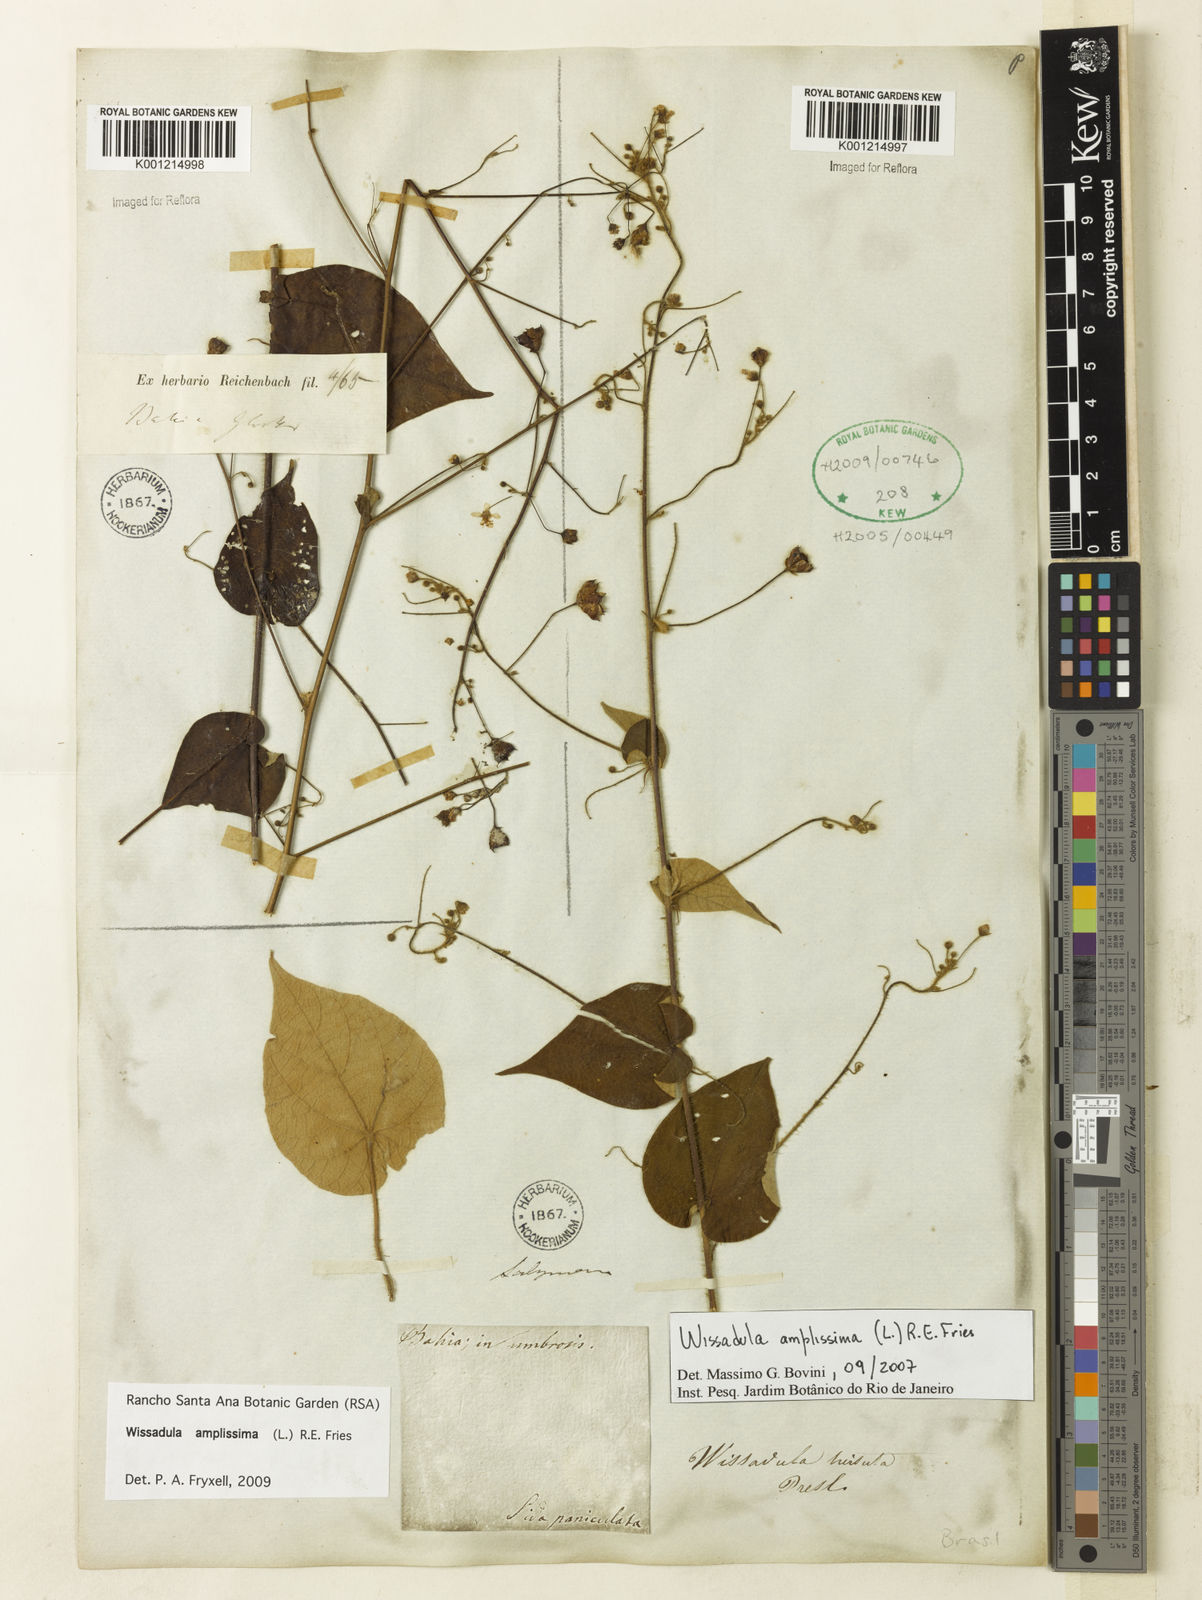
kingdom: Plantae
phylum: Tracheophyta
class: Magnoliopsida
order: Malvales
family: Malvaceae
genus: Wissadula
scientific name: Wissadula amplissima
